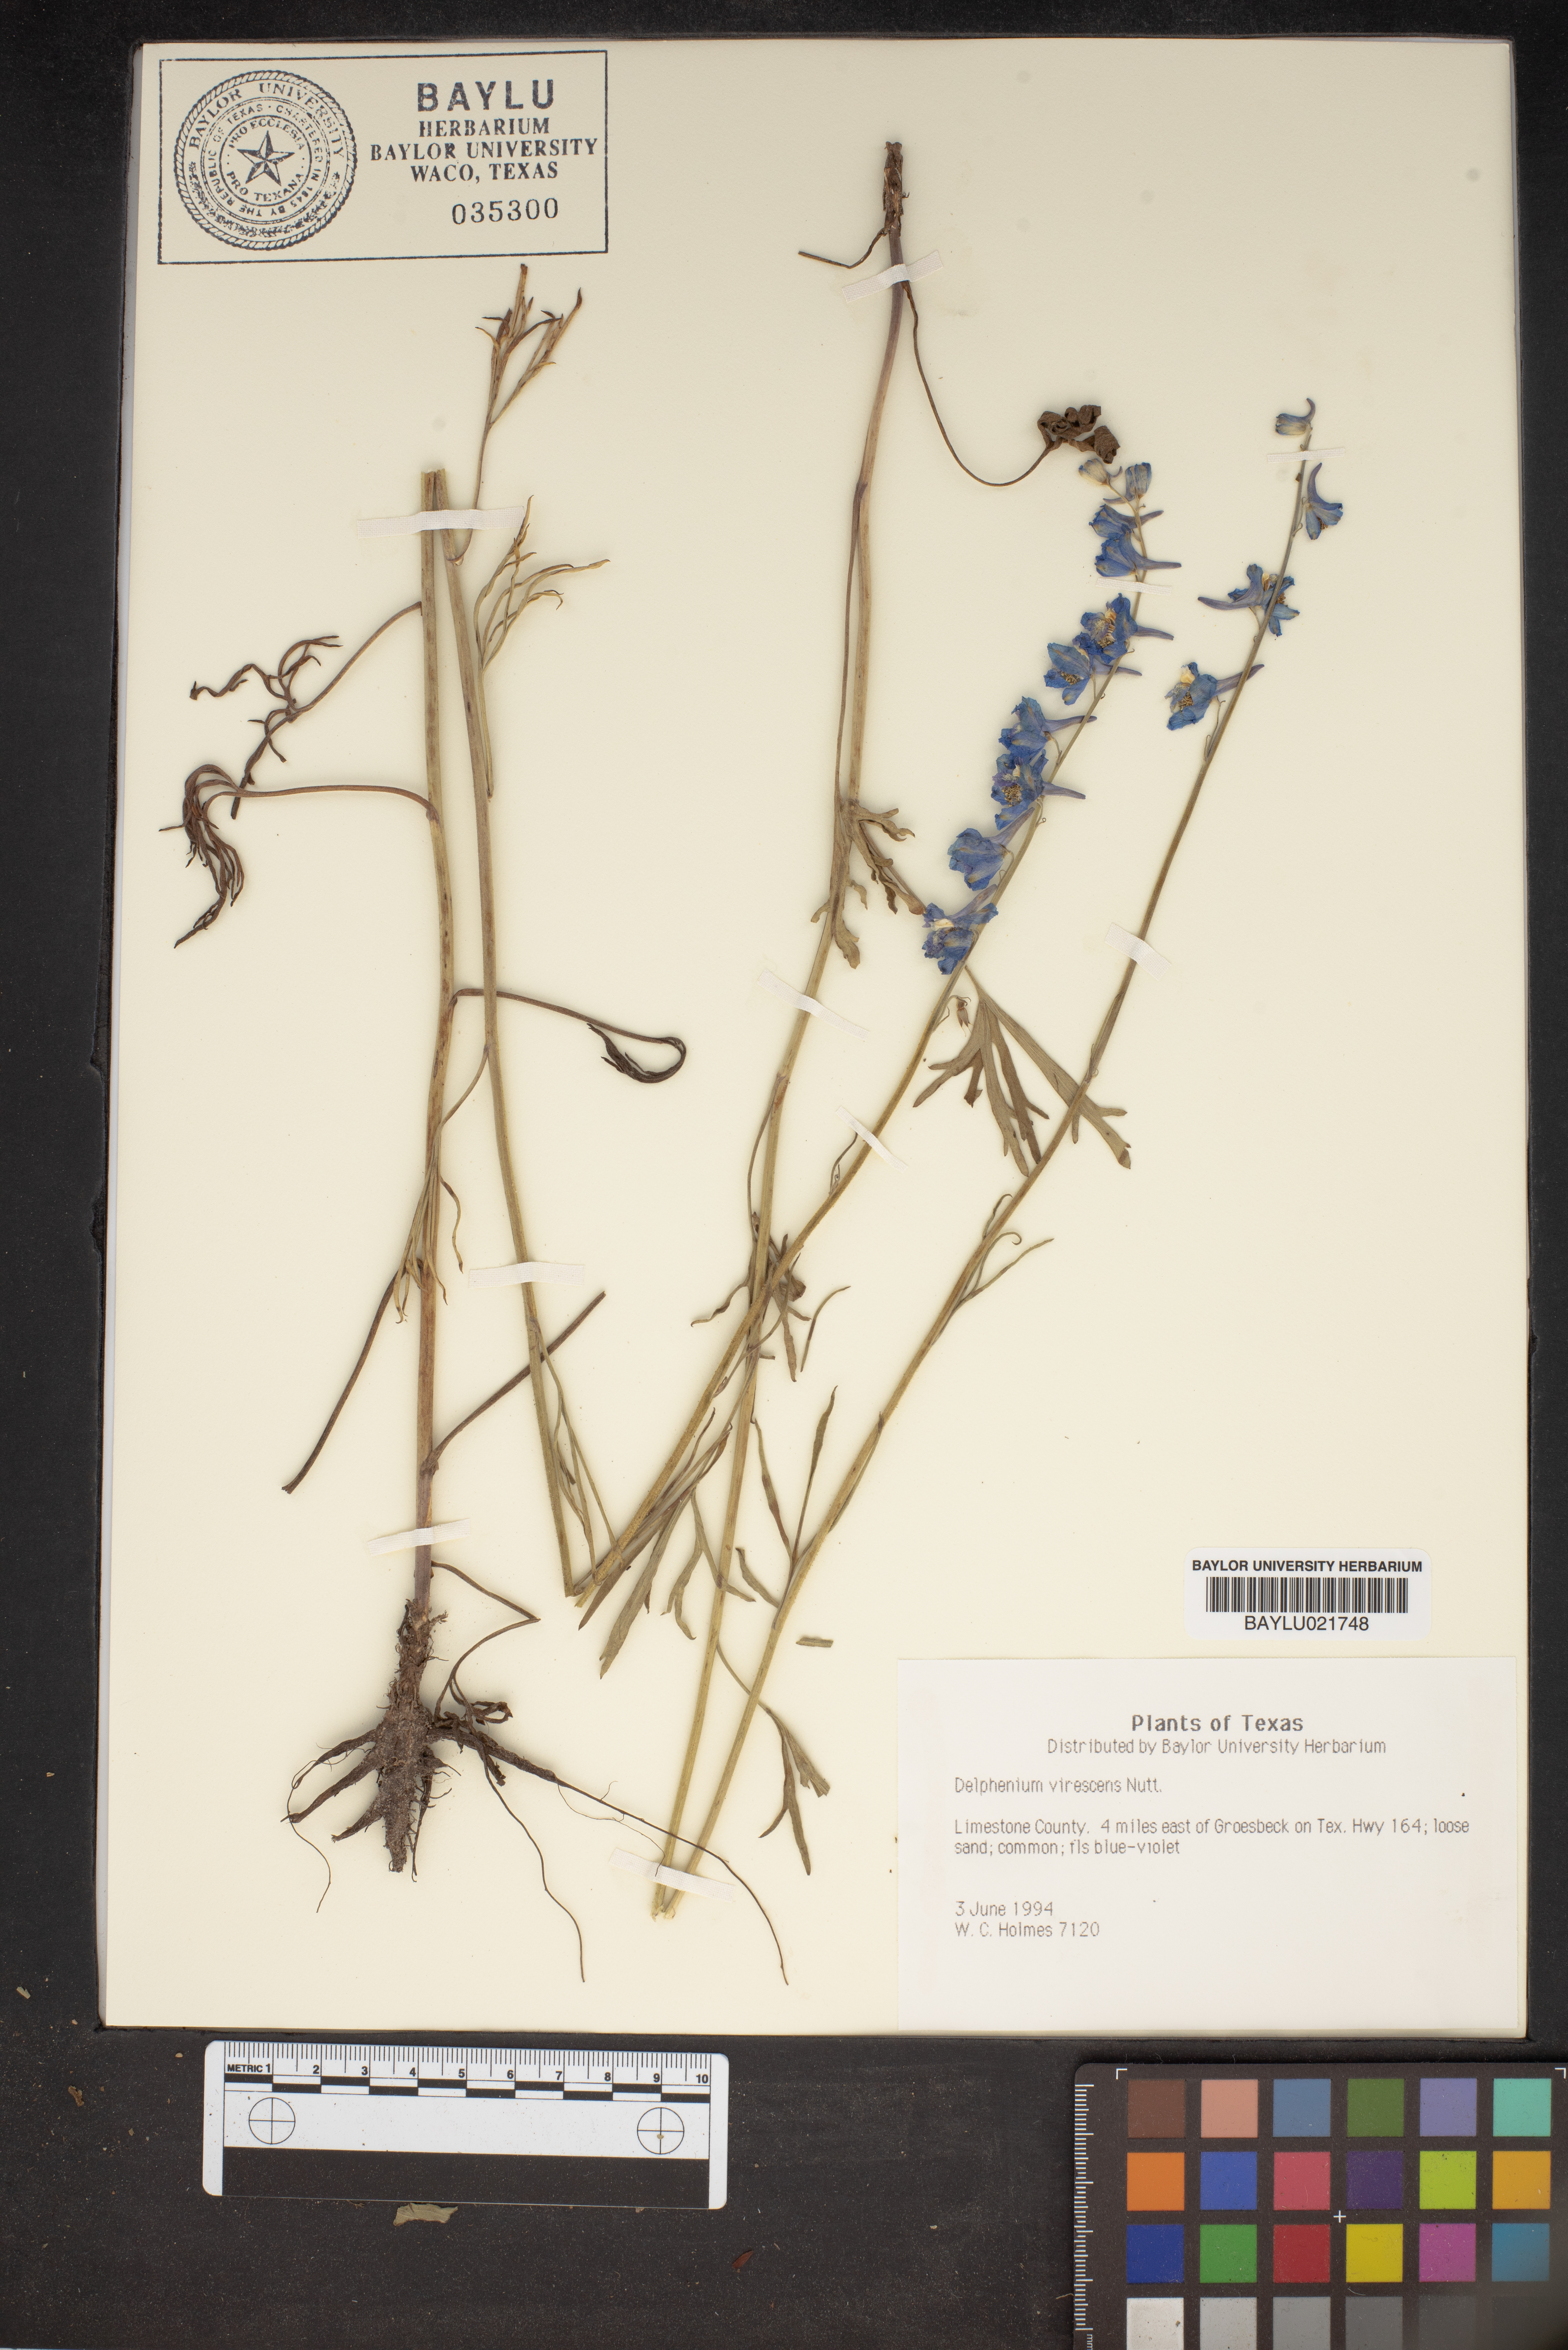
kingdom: Plantae
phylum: Tracheophyta
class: Magnoliopsida
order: Ranunculales
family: Ranunculaceae
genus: Delphinium
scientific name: Delphinium carolinianum
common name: Carolina larkspur
